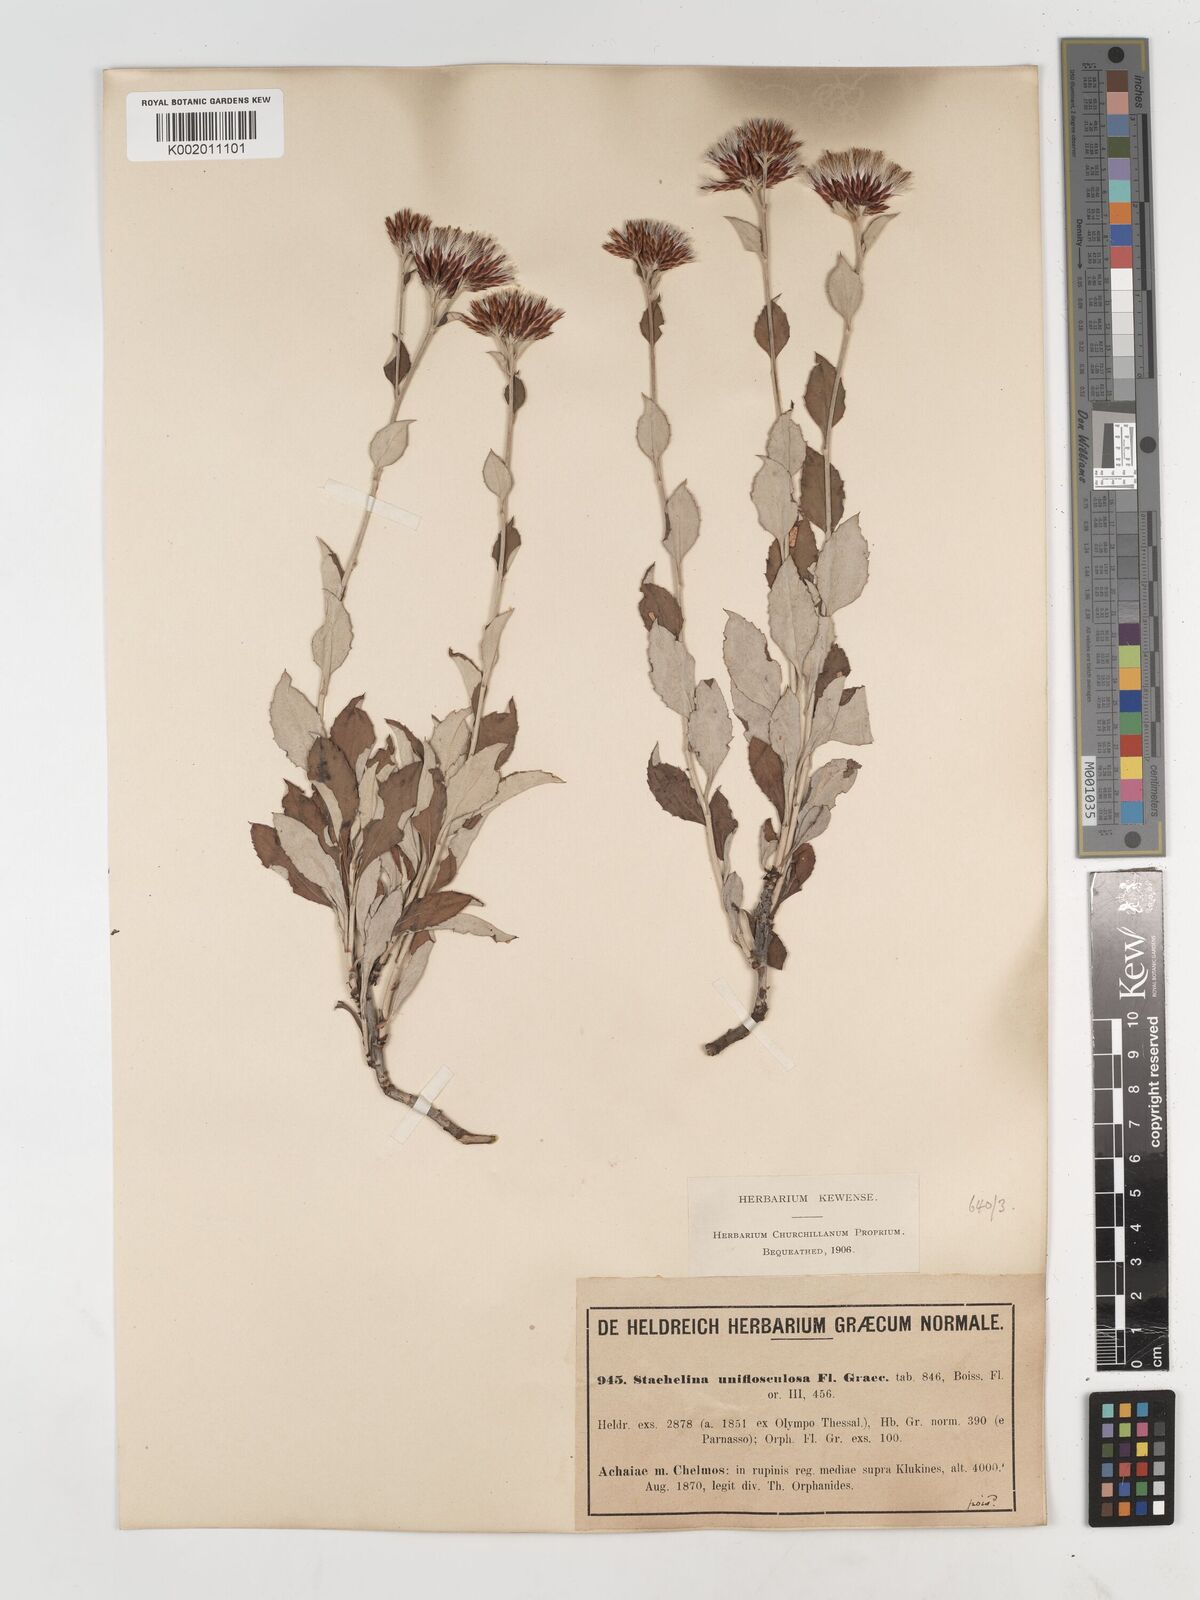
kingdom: Plantae
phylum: Tracheophyta
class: Magnoliopsida
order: Asterales
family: Asteraceae
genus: Staehelina
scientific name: Staehelina uniflosculosa
